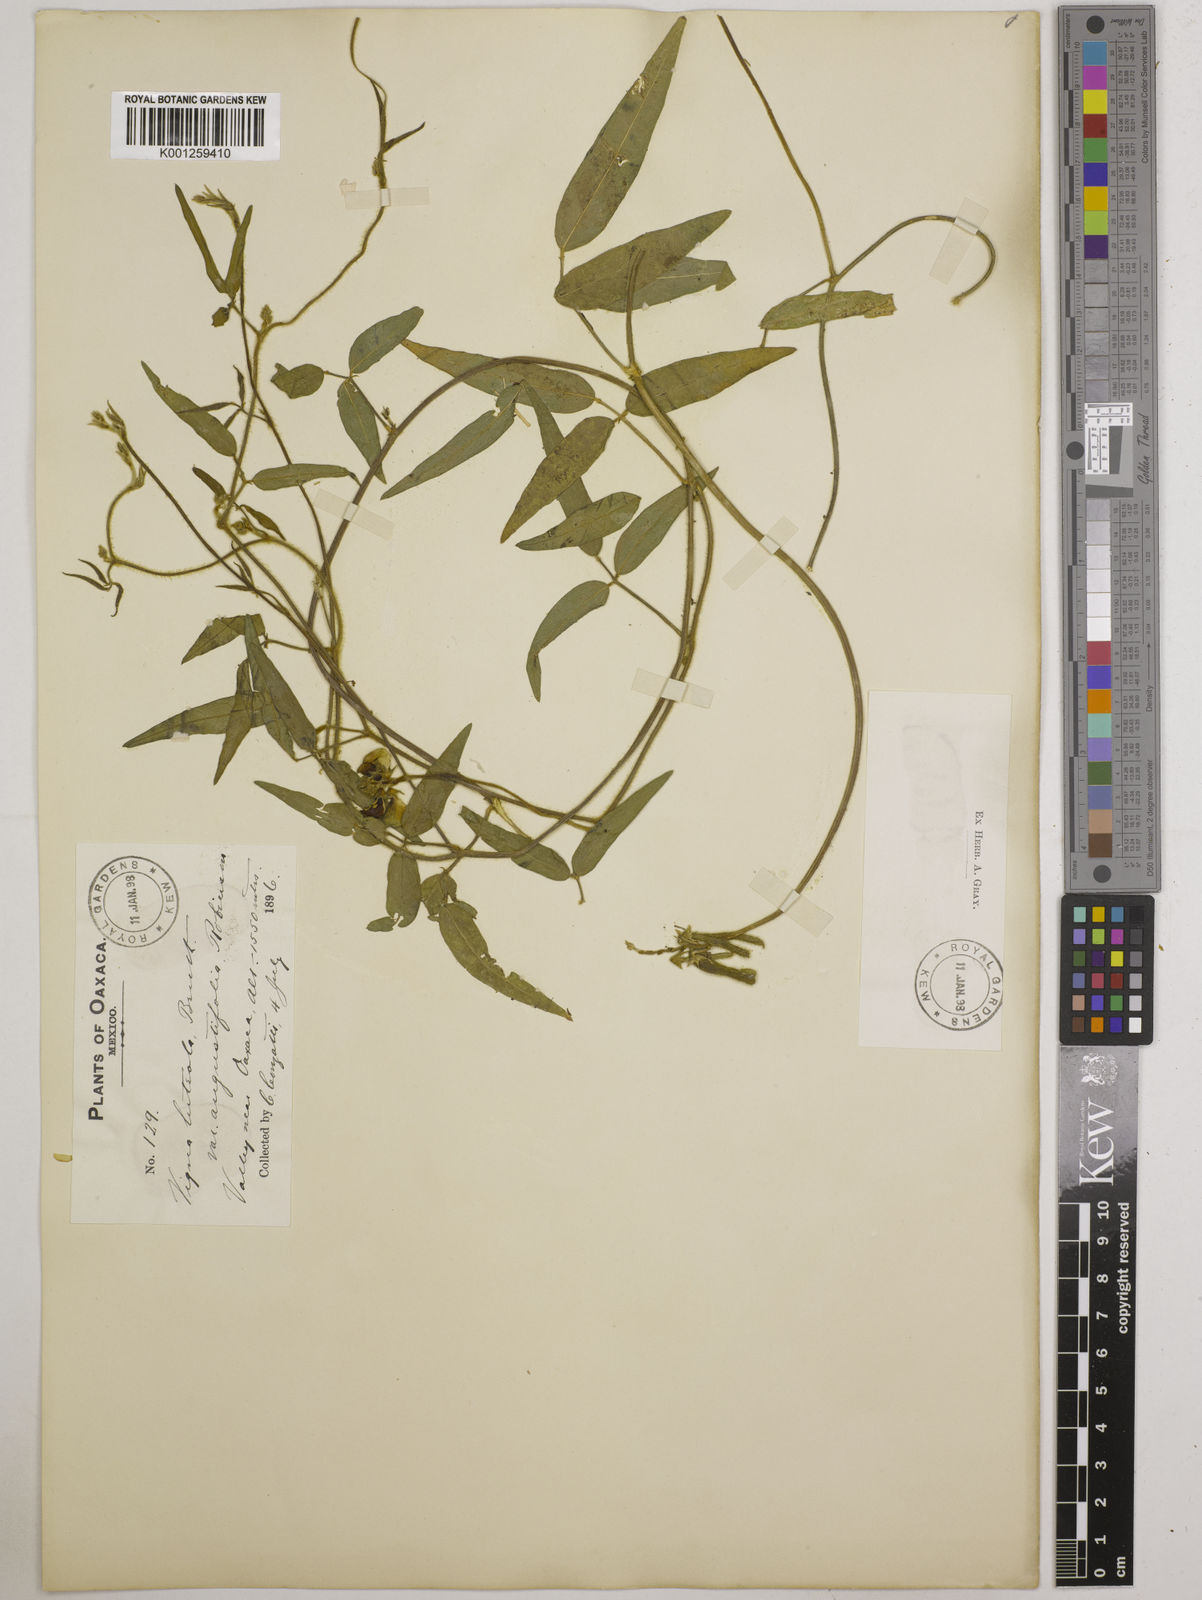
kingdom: Plantae
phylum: Tracheophyta
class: Magnoliopsida
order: Fabales
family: Fabaceae
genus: Vigna
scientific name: Vigna luteola
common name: Hairypod cowpea
